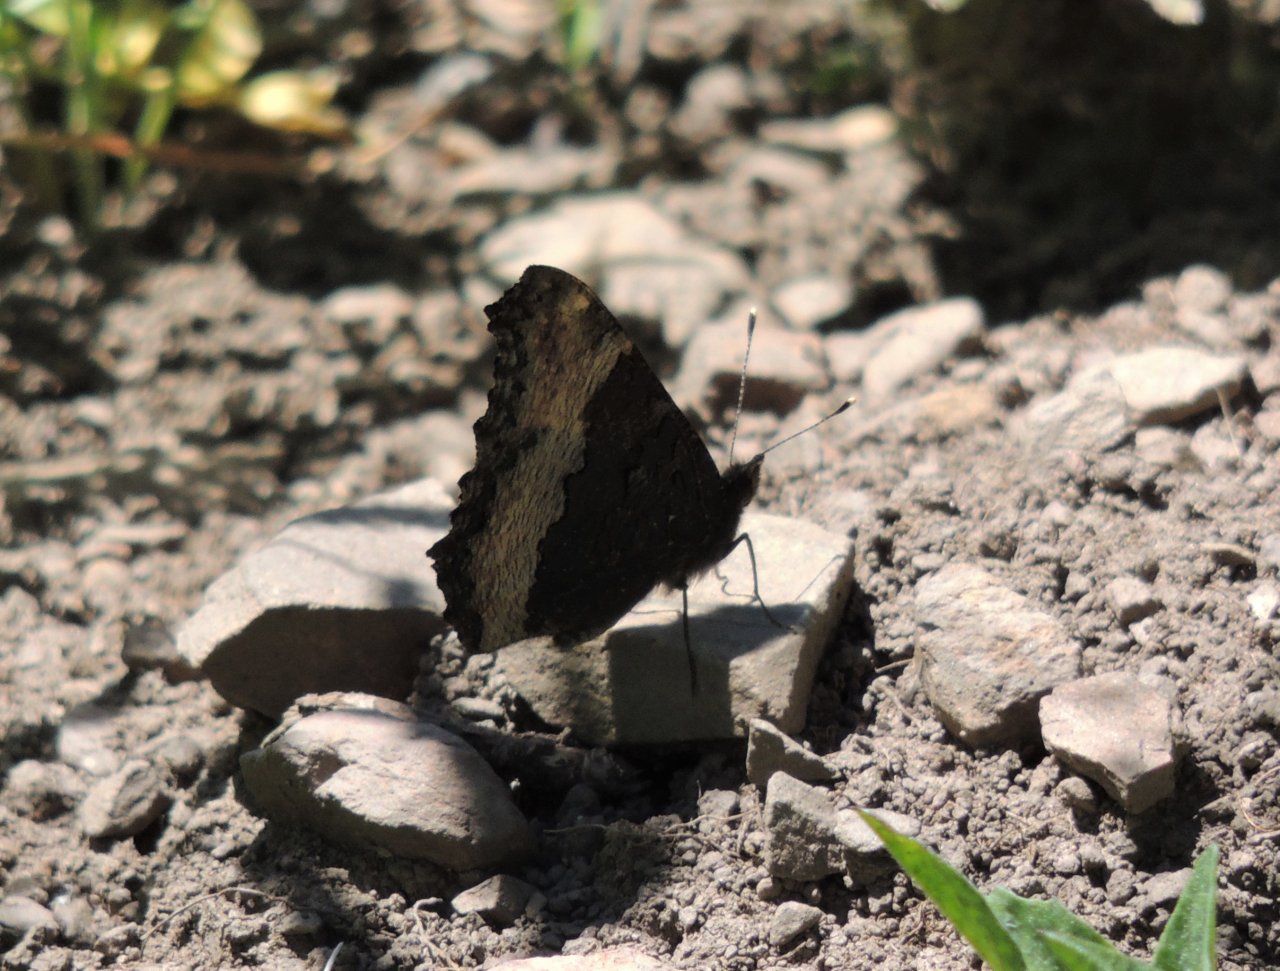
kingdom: Animalia
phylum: Arthropoda
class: Insecta
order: Lepidoptera
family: Nymphalidae
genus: Aglais
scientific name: Aglais milberti
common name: Milbert's Tortoiseshell
